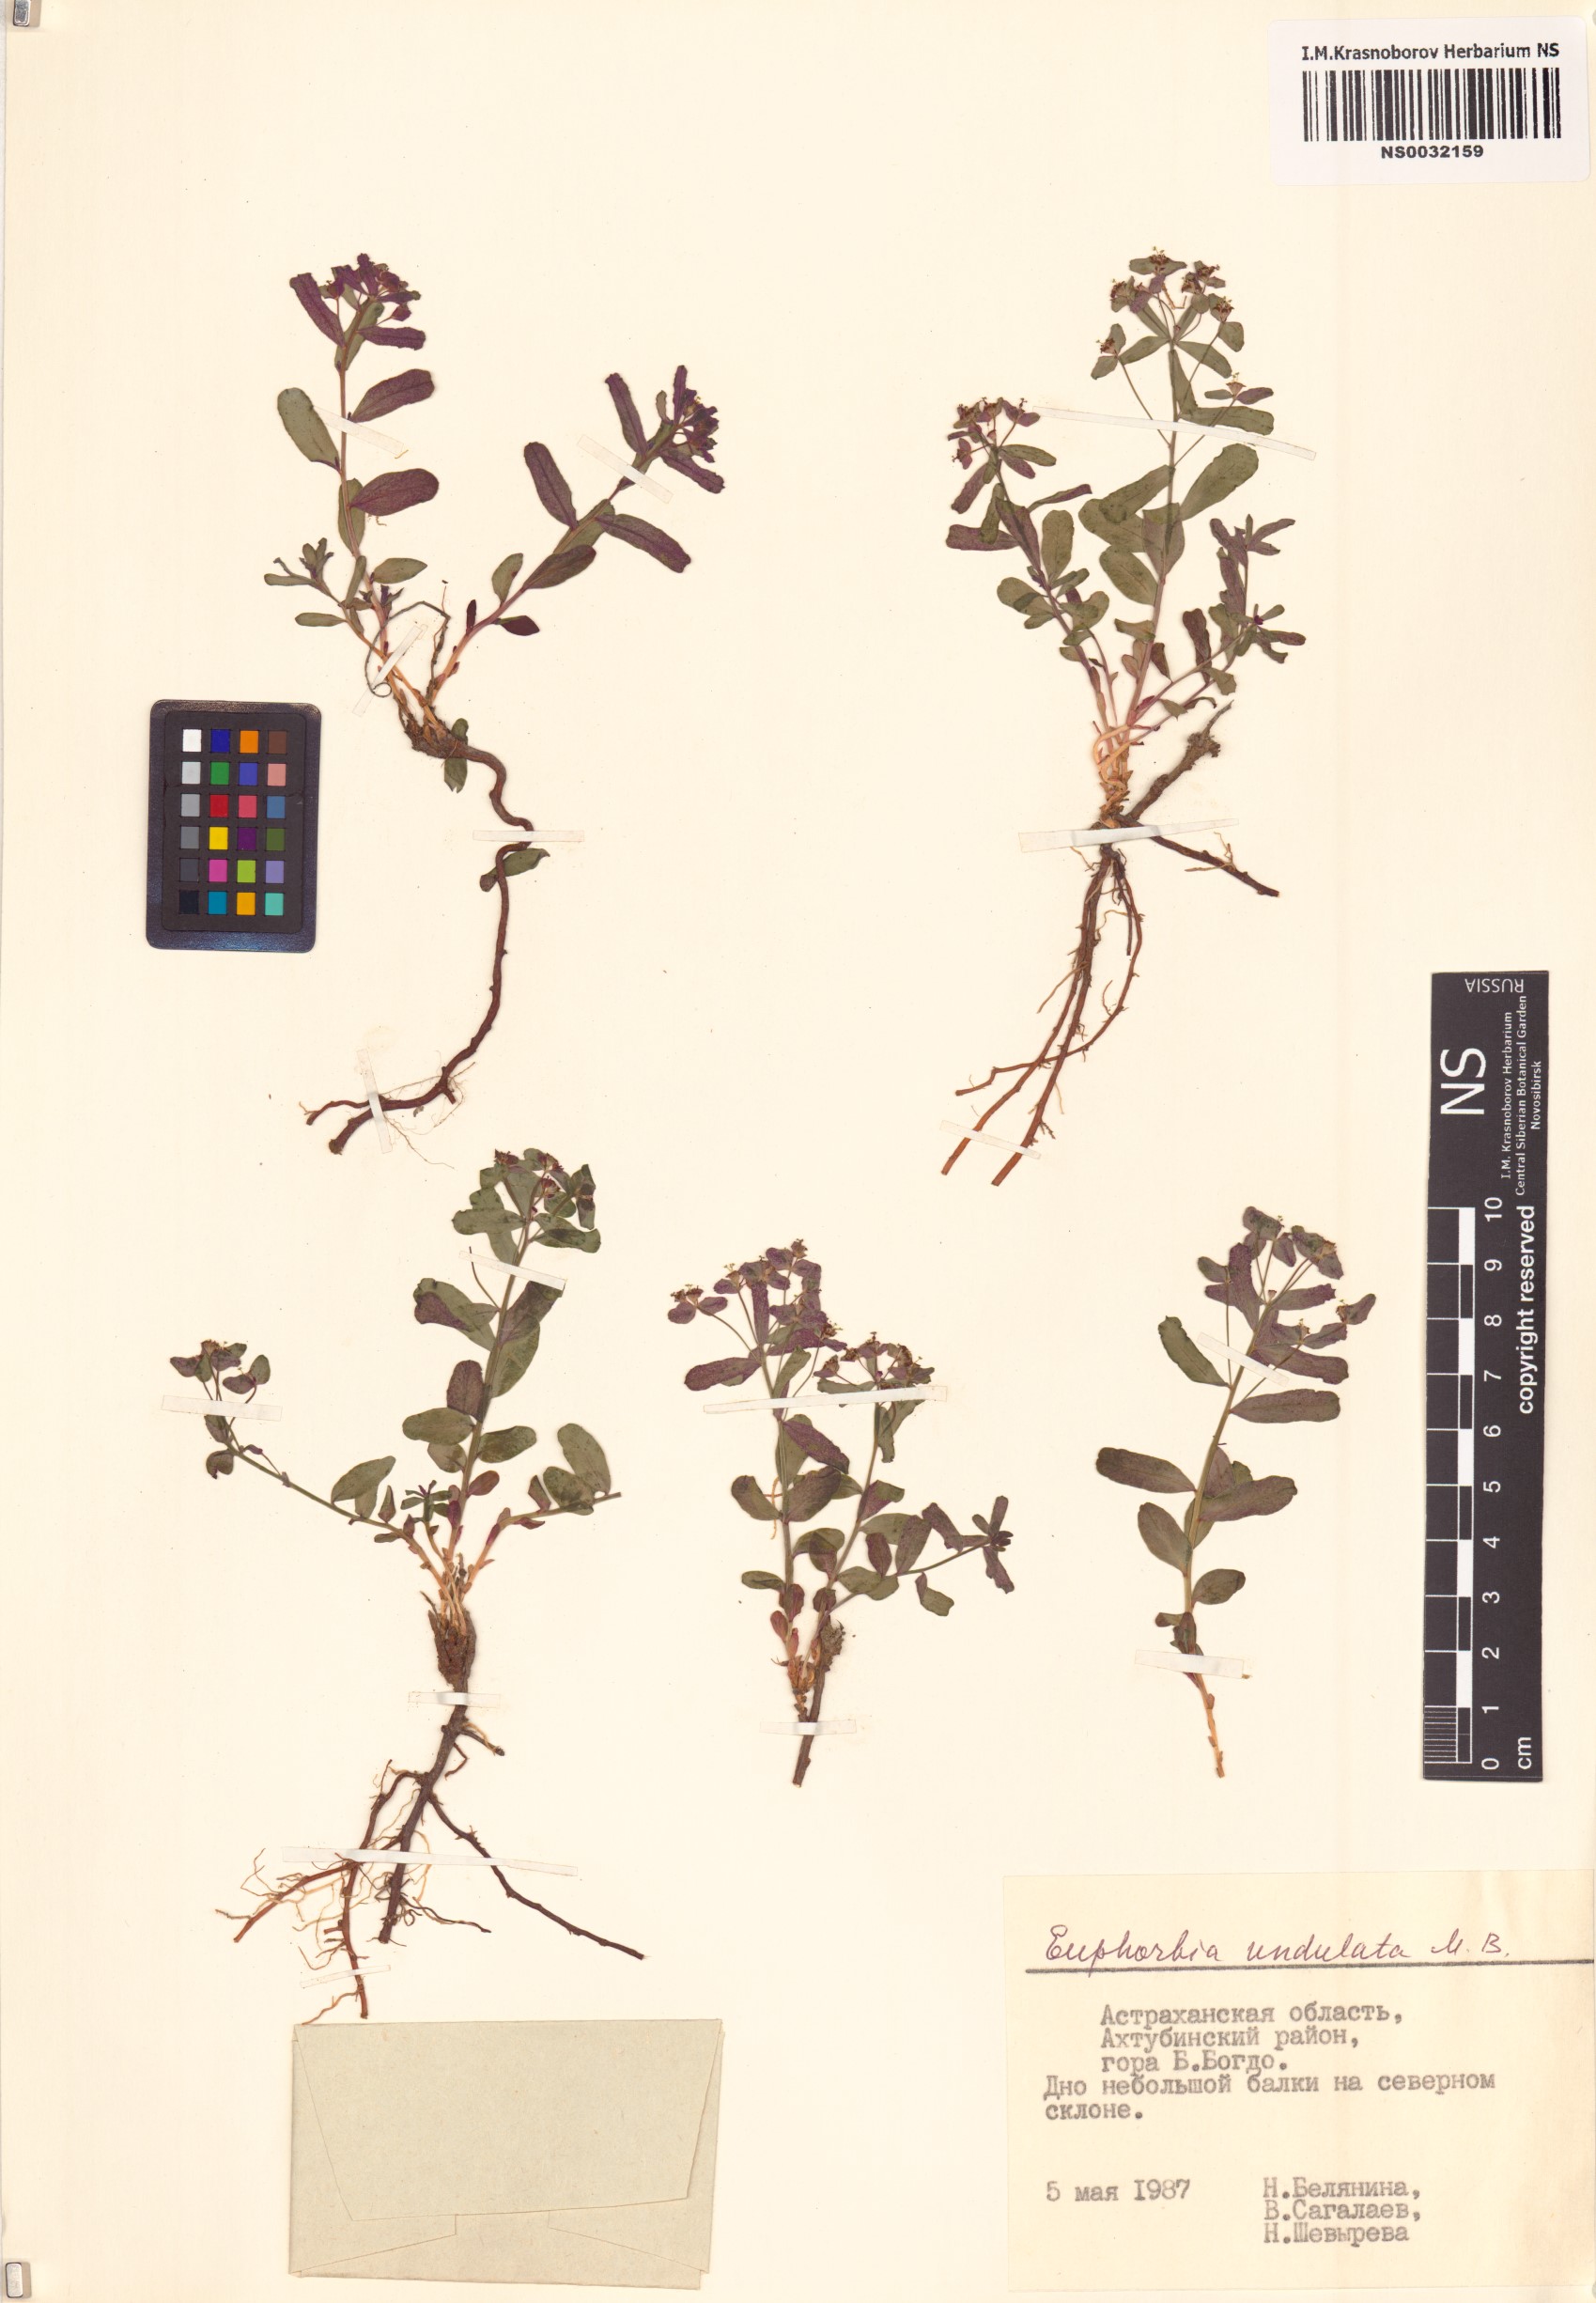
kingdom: Plantae
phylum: Tracheophyta
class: Magnoliopsida
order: Malpighiales
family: Euphorbiaceae
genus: Euphorbia
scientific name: Euphorbia undulata
